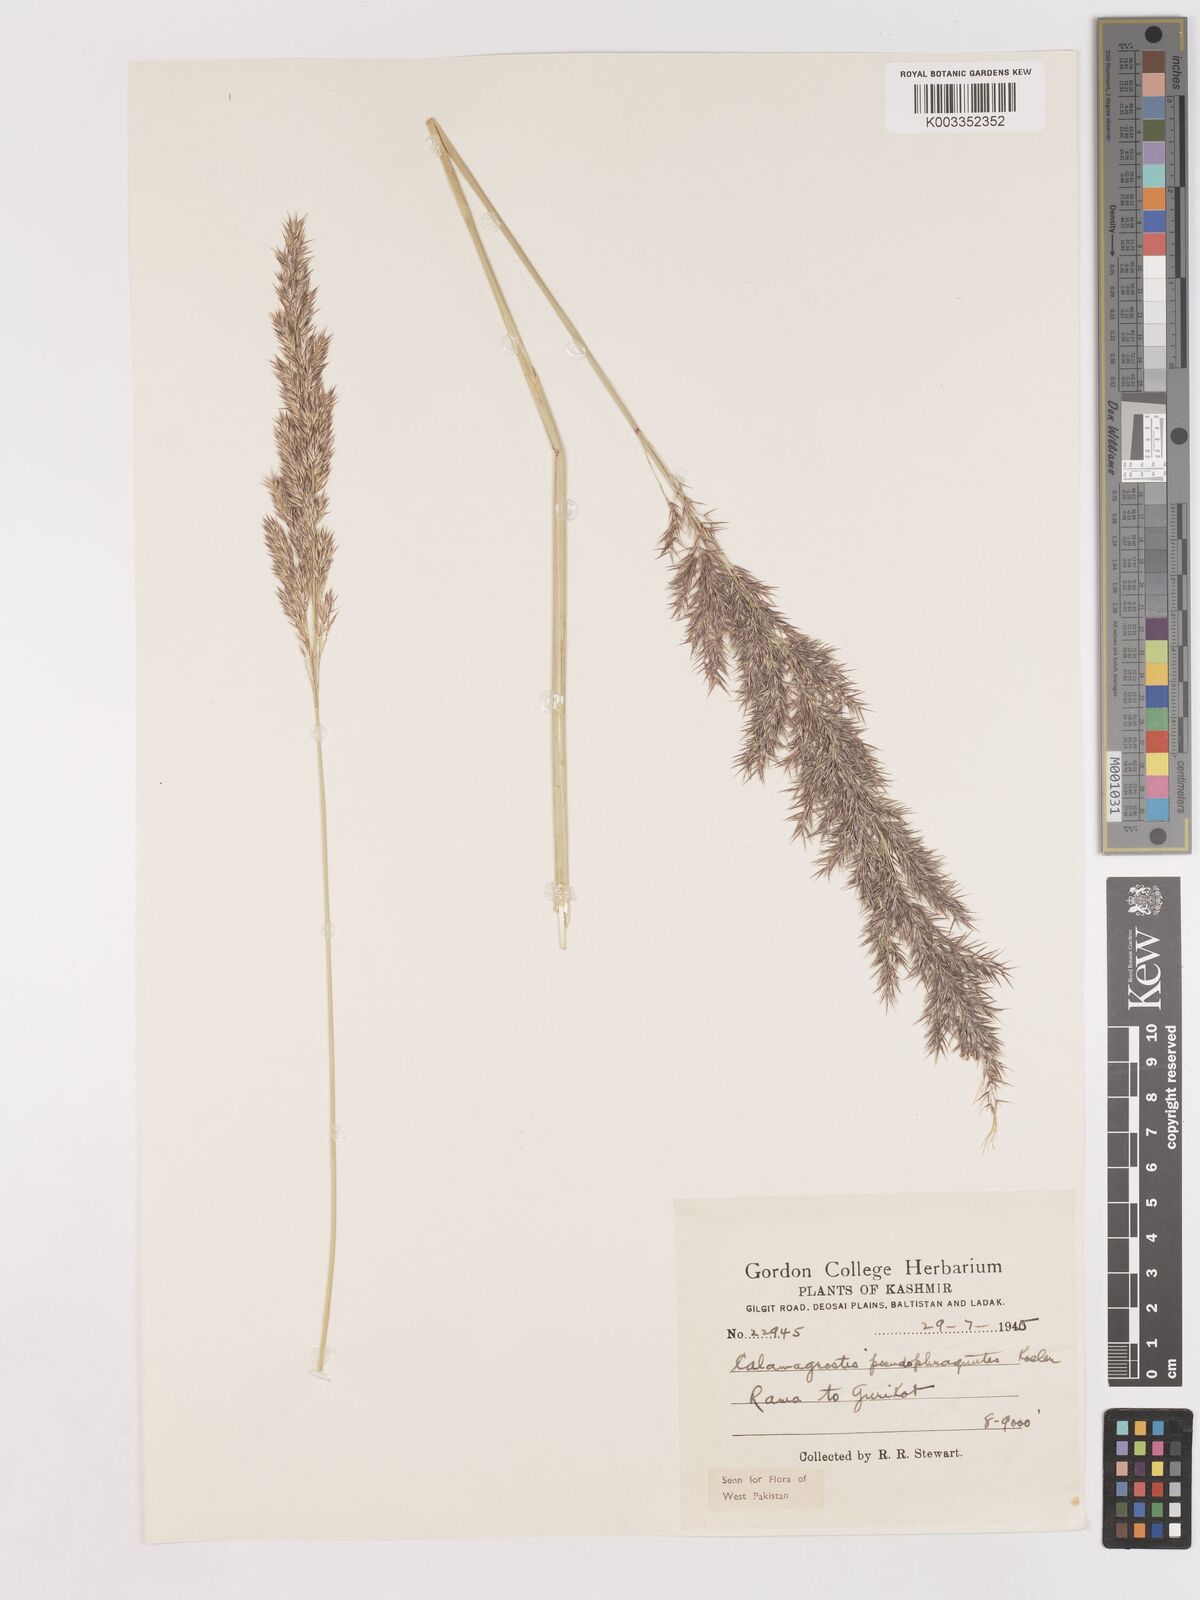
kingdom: Plantae
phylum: Tracheophyta
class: Liliopsida
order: Poales
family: Poaceae
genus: Calamagrostis
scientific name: Calamagrostis pseudophragmites
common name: Coastal small-reed
